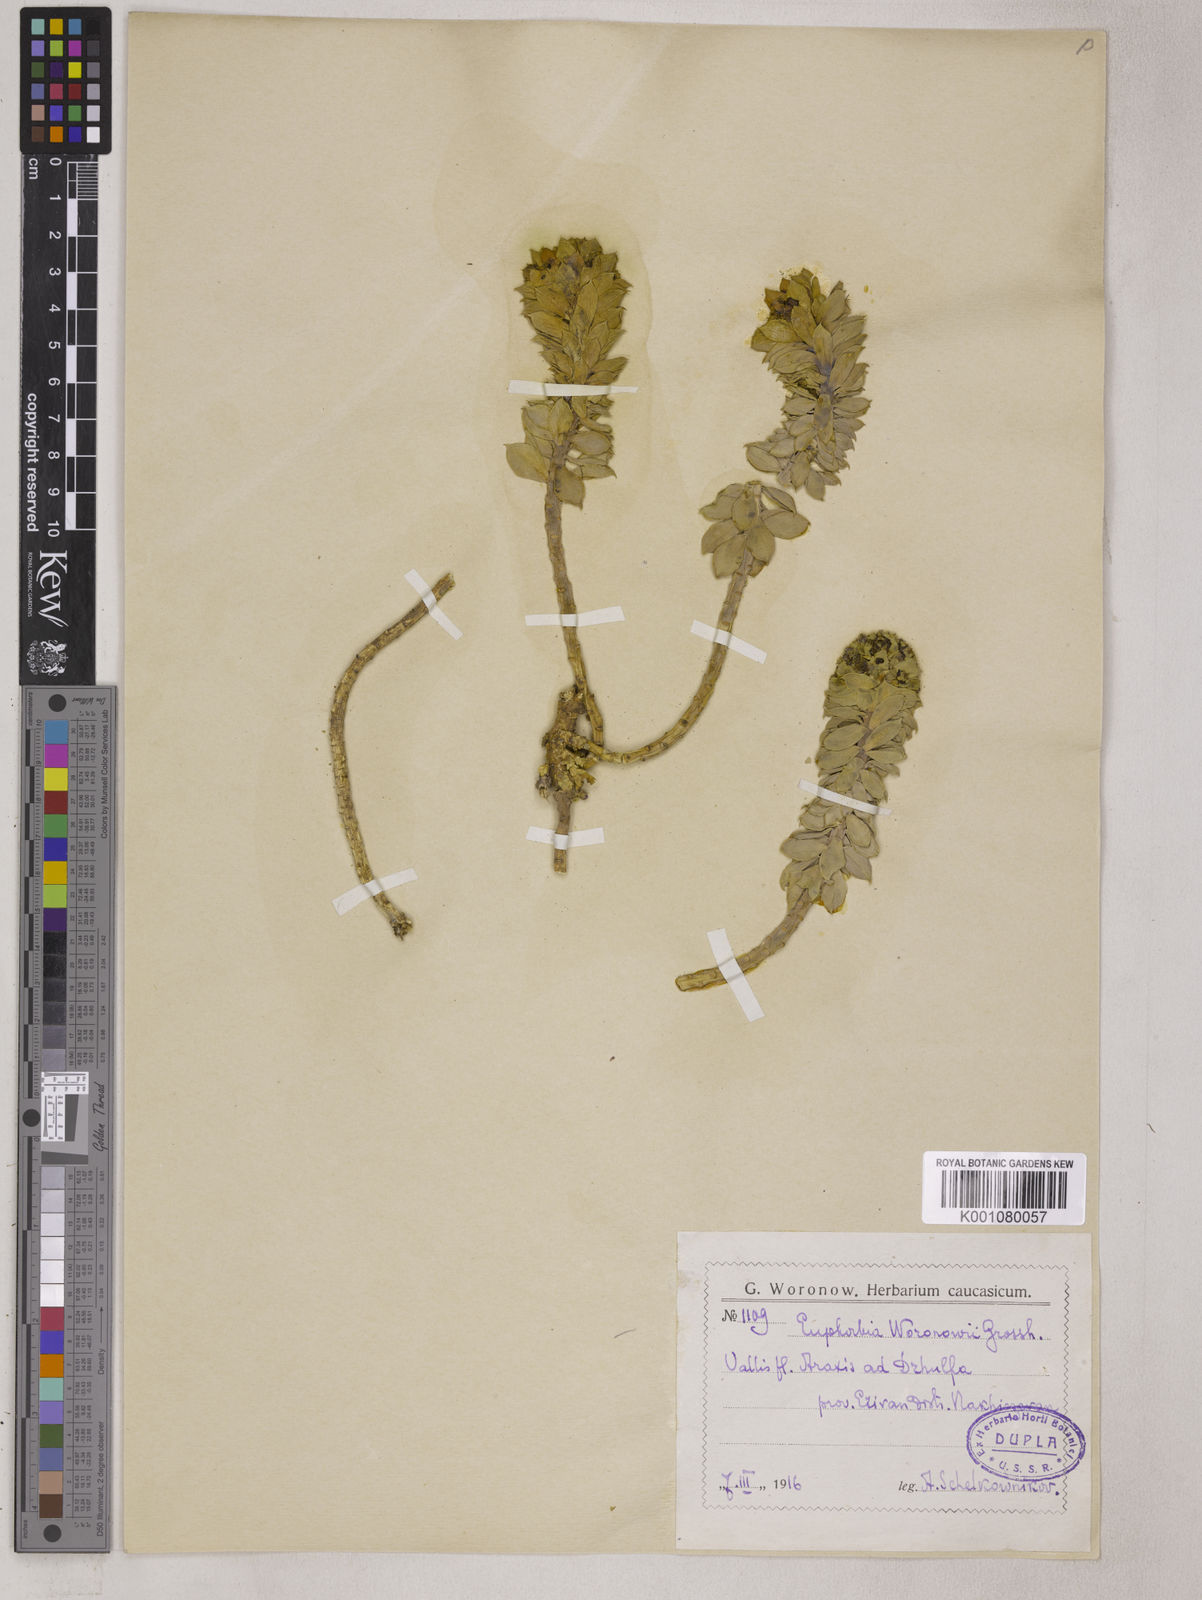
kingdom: Plantae
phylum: Tracheophyta
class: Magnoliopsida
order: Malpighiales
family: Euphorbiaceae
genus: Euphorbia
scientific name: Euphorbia marschalliana
